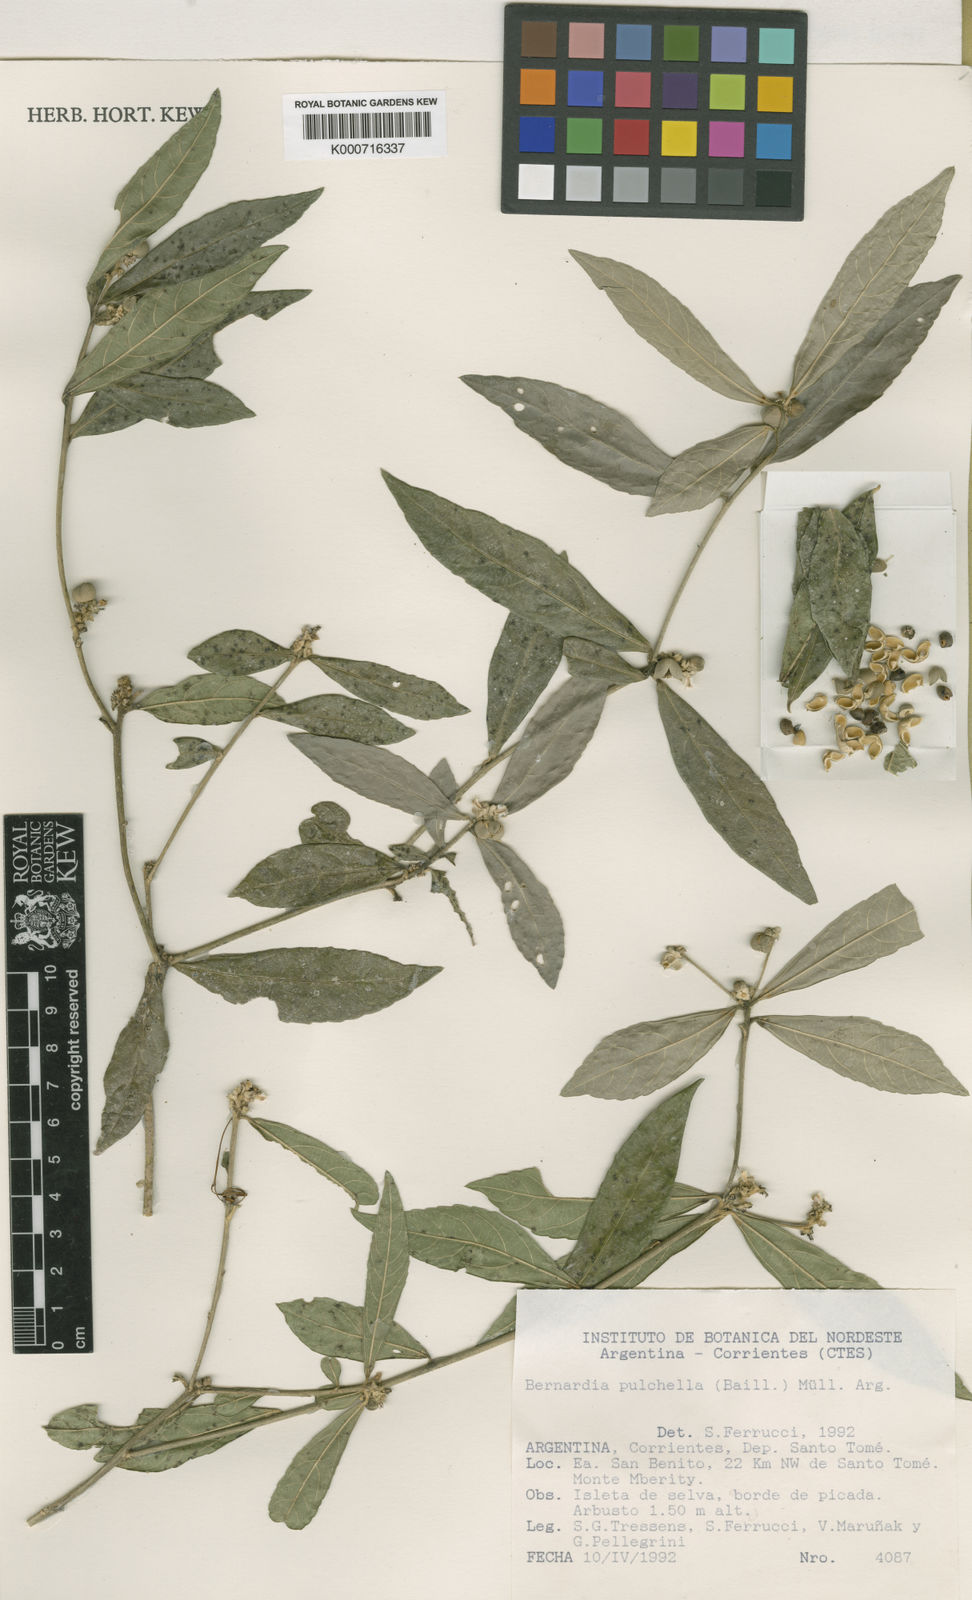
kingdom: Plantae
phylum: Tracheophyta
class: Magnoliopsida
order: Malpighiales
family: Euphorbiaceae
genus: Bernardia
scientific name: Bernardia
